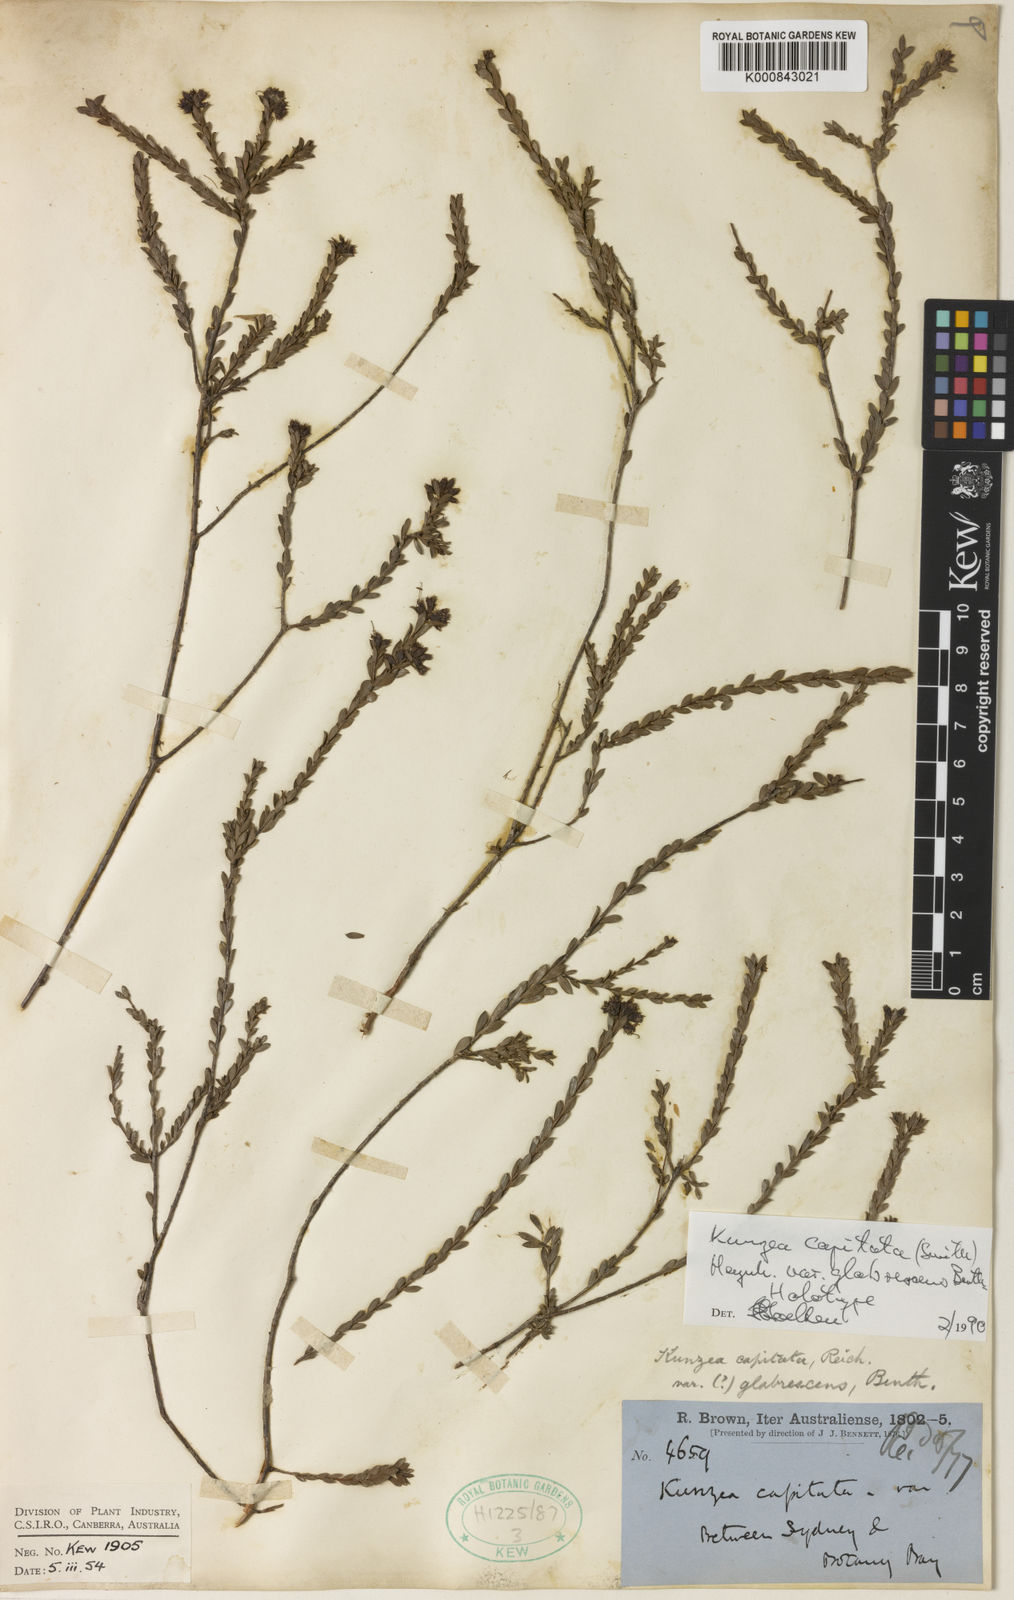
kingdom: Plantae
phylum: Tracheophyta
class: Magnoliopsida
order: Myrtales
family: Myrtaceae
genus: Kunzea
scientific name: Kunzea capitata
